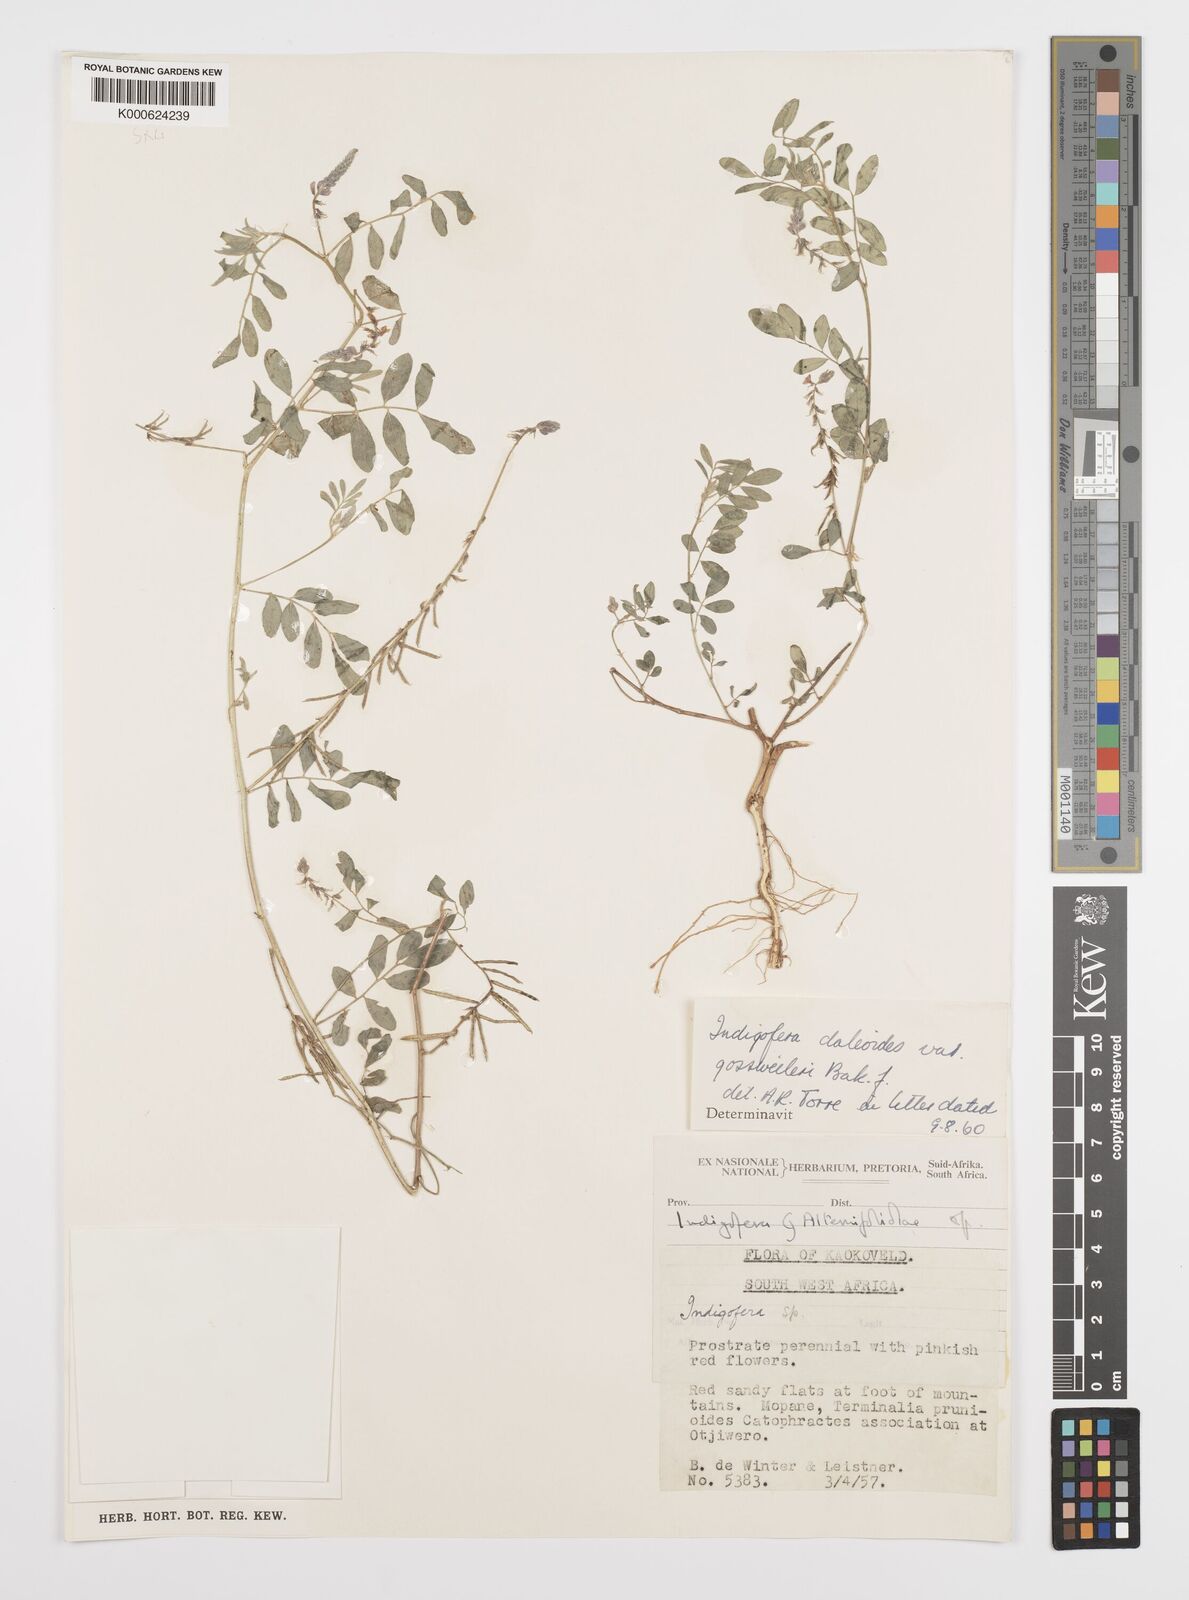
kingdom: Plantae
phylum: Tracheophyta
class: Magnoliopsida
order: Fabales
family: Fabaceae
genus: Indigofera
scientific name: Indigofera
